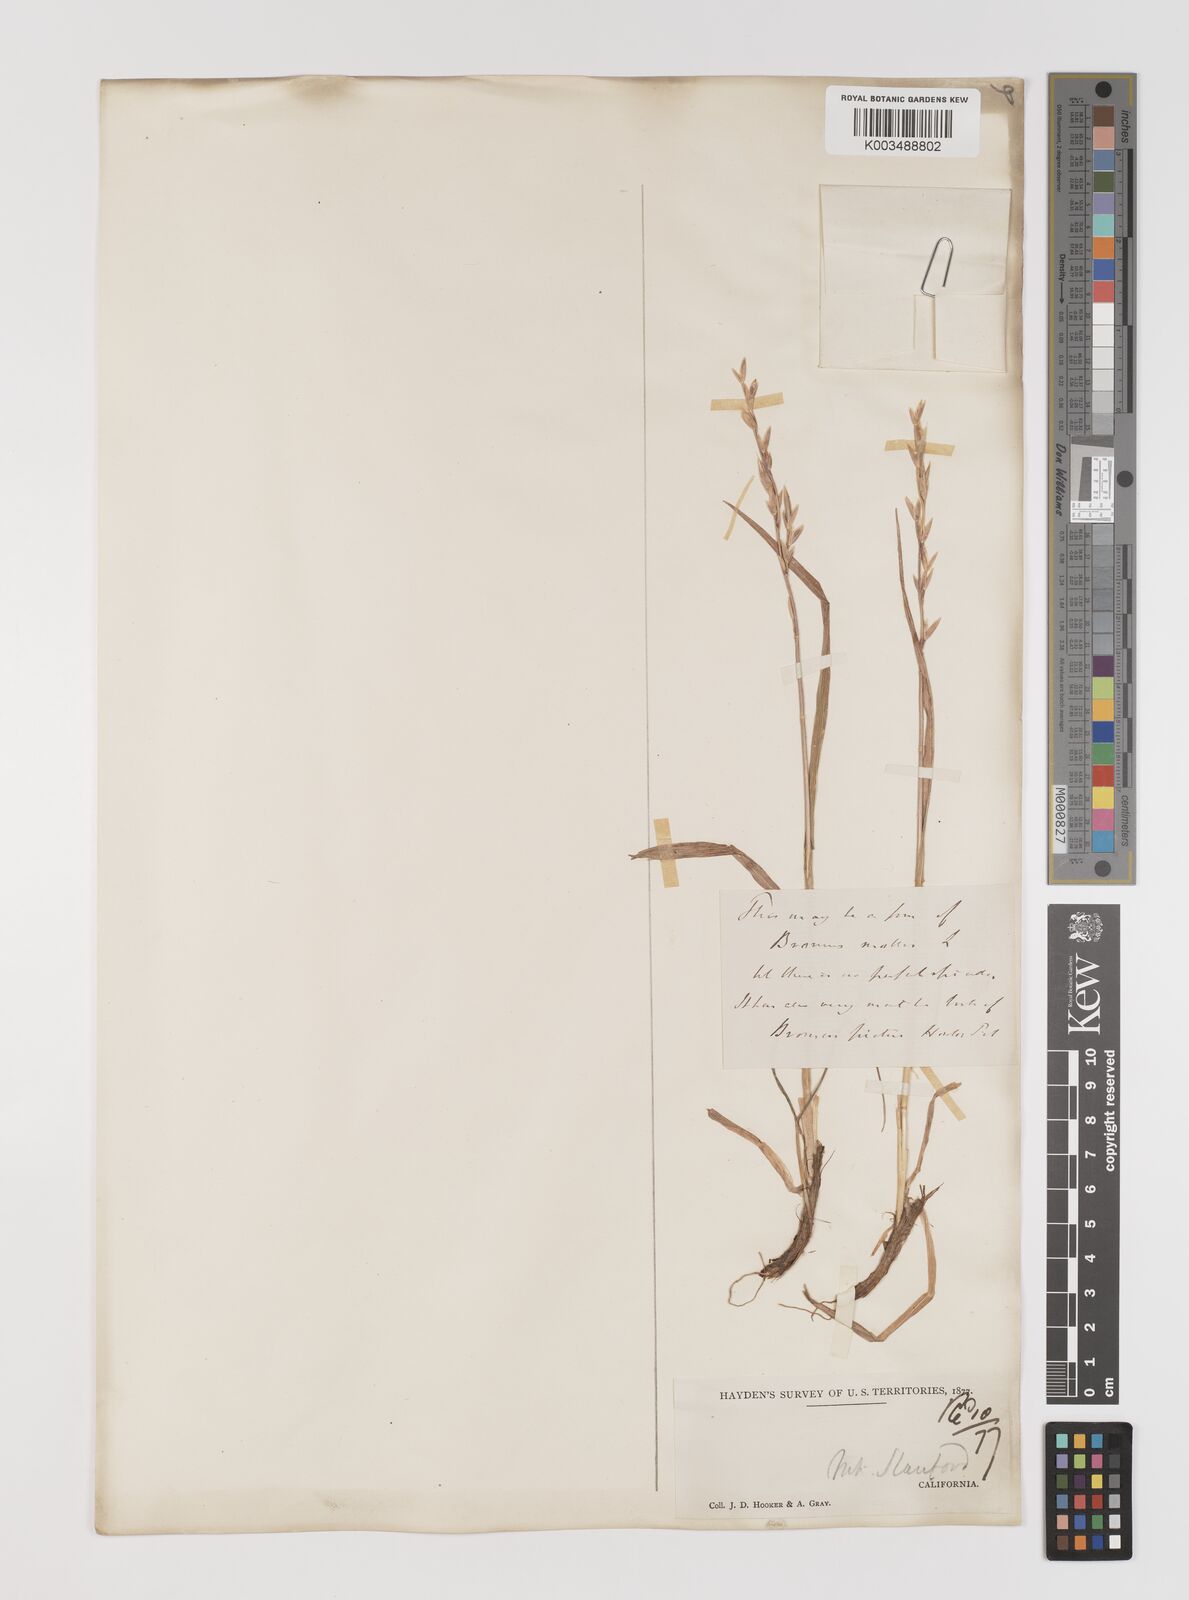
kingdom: Plantae
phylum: Tracheophyta
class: Liliopsida
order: Poales
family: Poaceae
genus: Bromus
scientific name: Bromus
